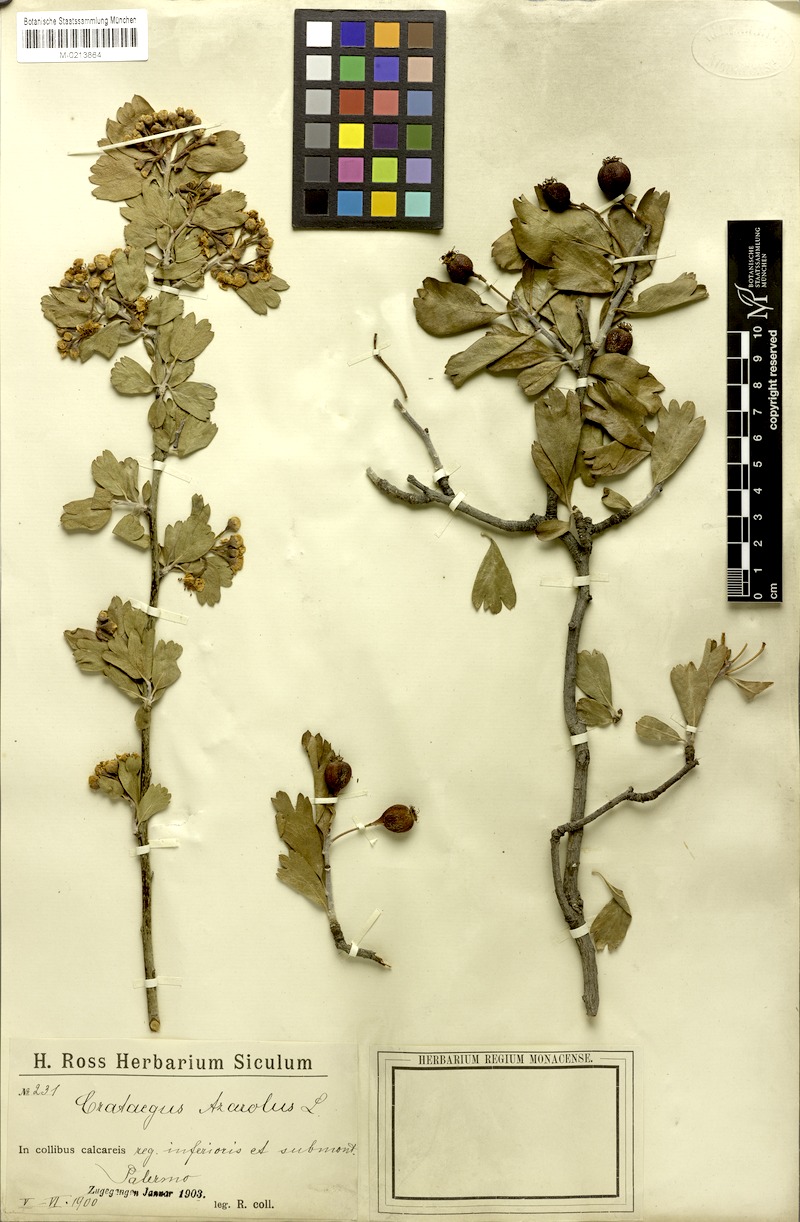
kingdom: Plantae
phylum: Tracheophyta
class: Magnoliopsida
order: Rosales
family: Rosaceae
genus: Crataegus
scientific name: Crataegus azarolus
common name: Azarole
